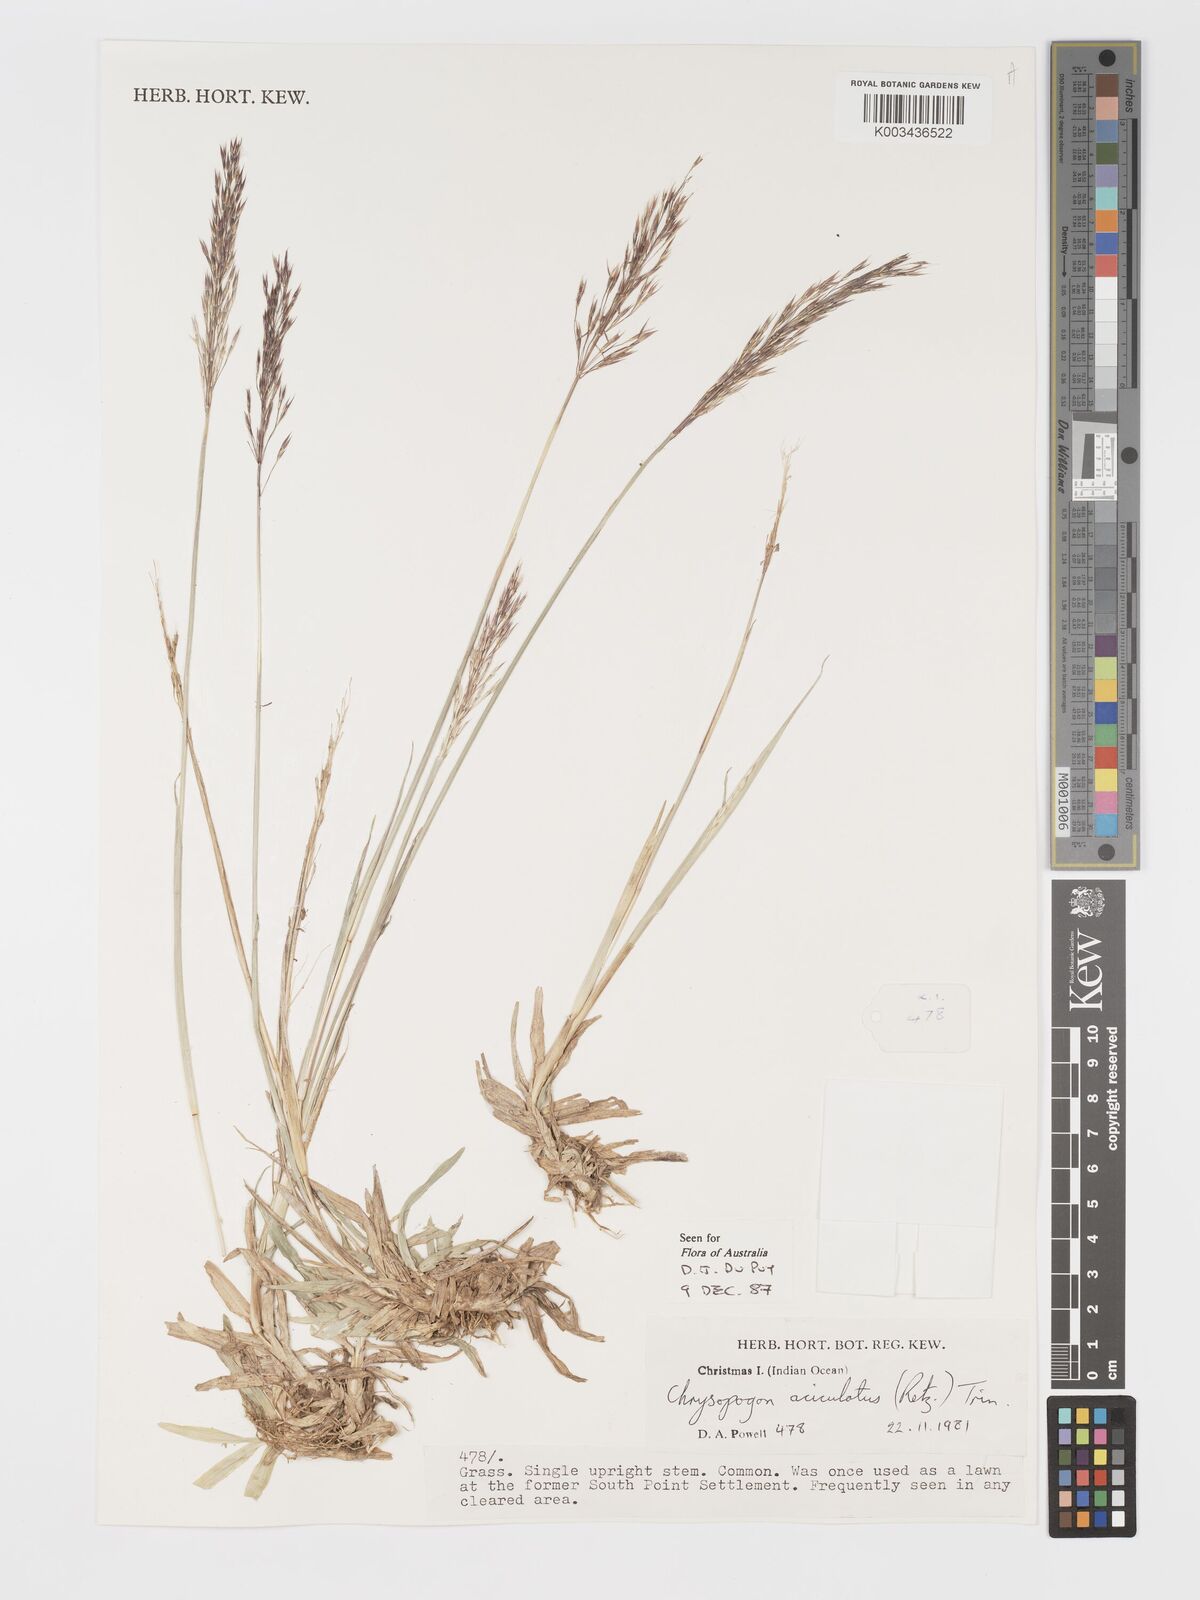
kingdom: Plantae
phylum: Tracheophyta
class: Liliopsida
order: Poales
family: Poaceae
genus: Chrysopogon
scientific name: Chrysopogon aciculatus
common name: Pilipiliula
